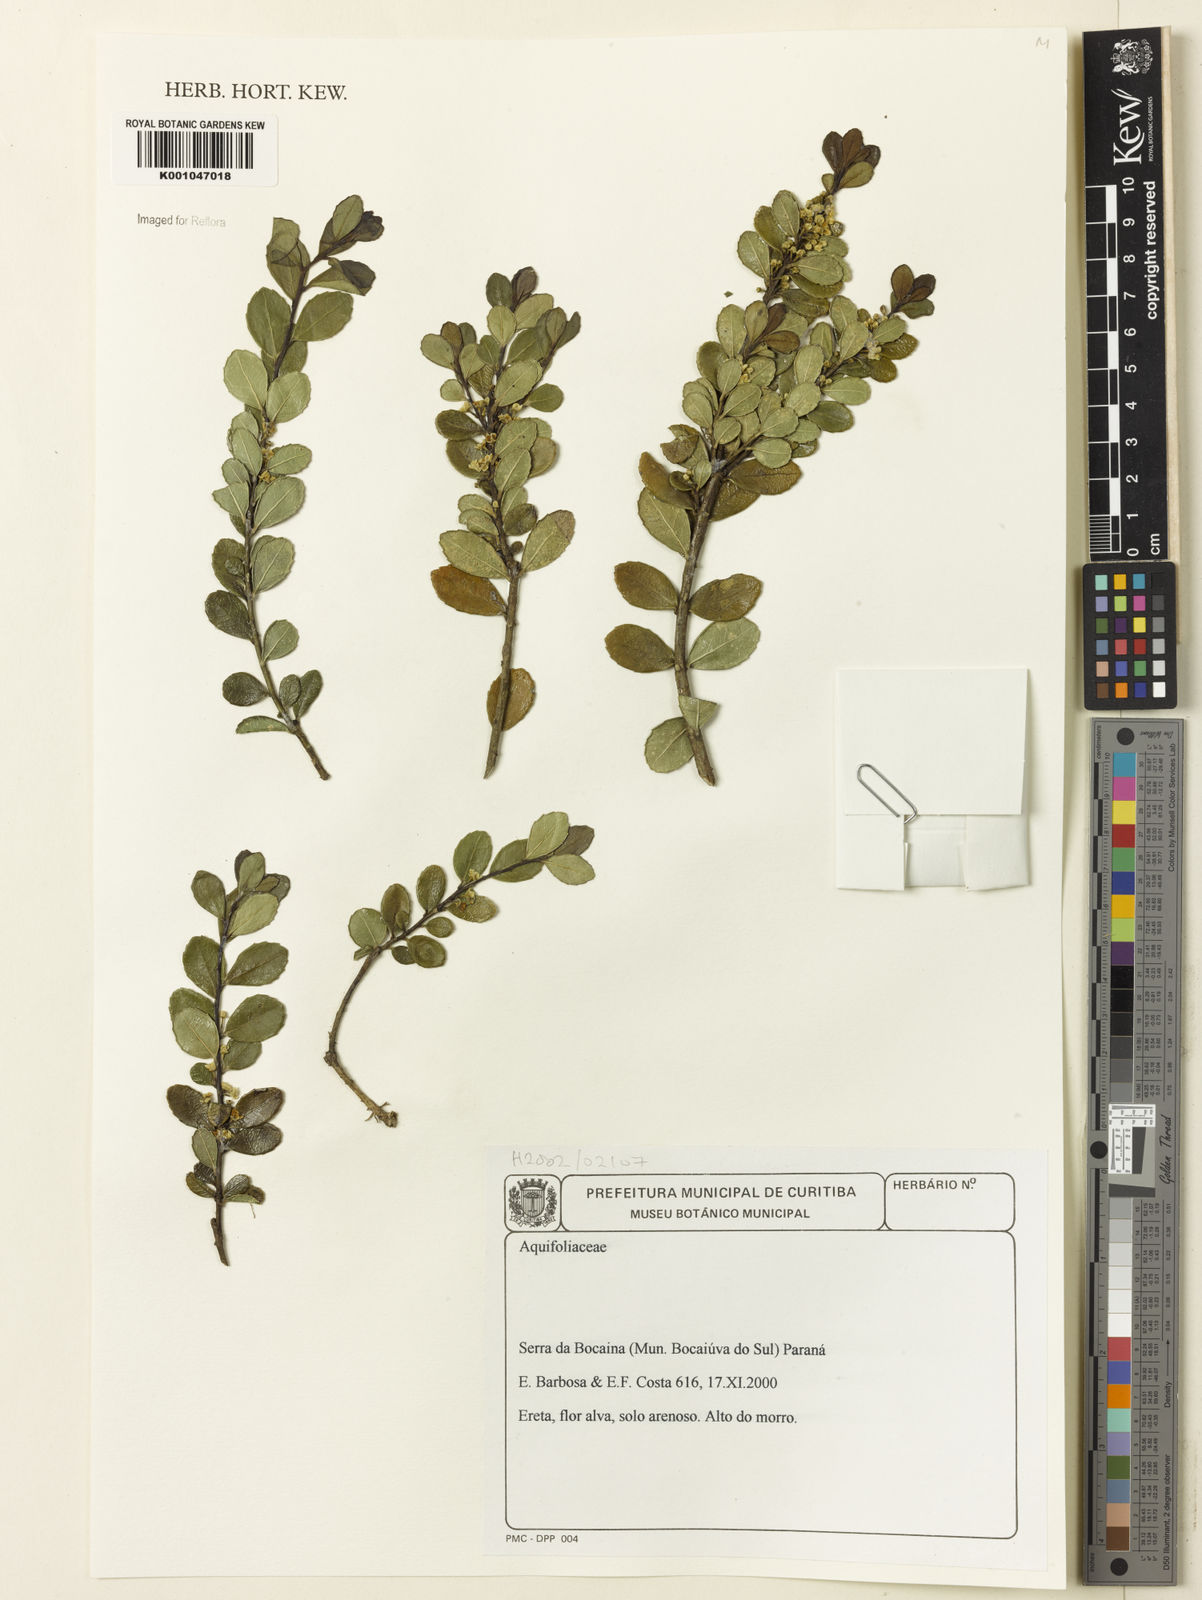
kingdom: Plantae
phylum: Tracheophyta
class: Magnoliopsida
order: Aquifoliales
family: Aquifoliaceae
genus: Ilex
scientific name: Ilex
